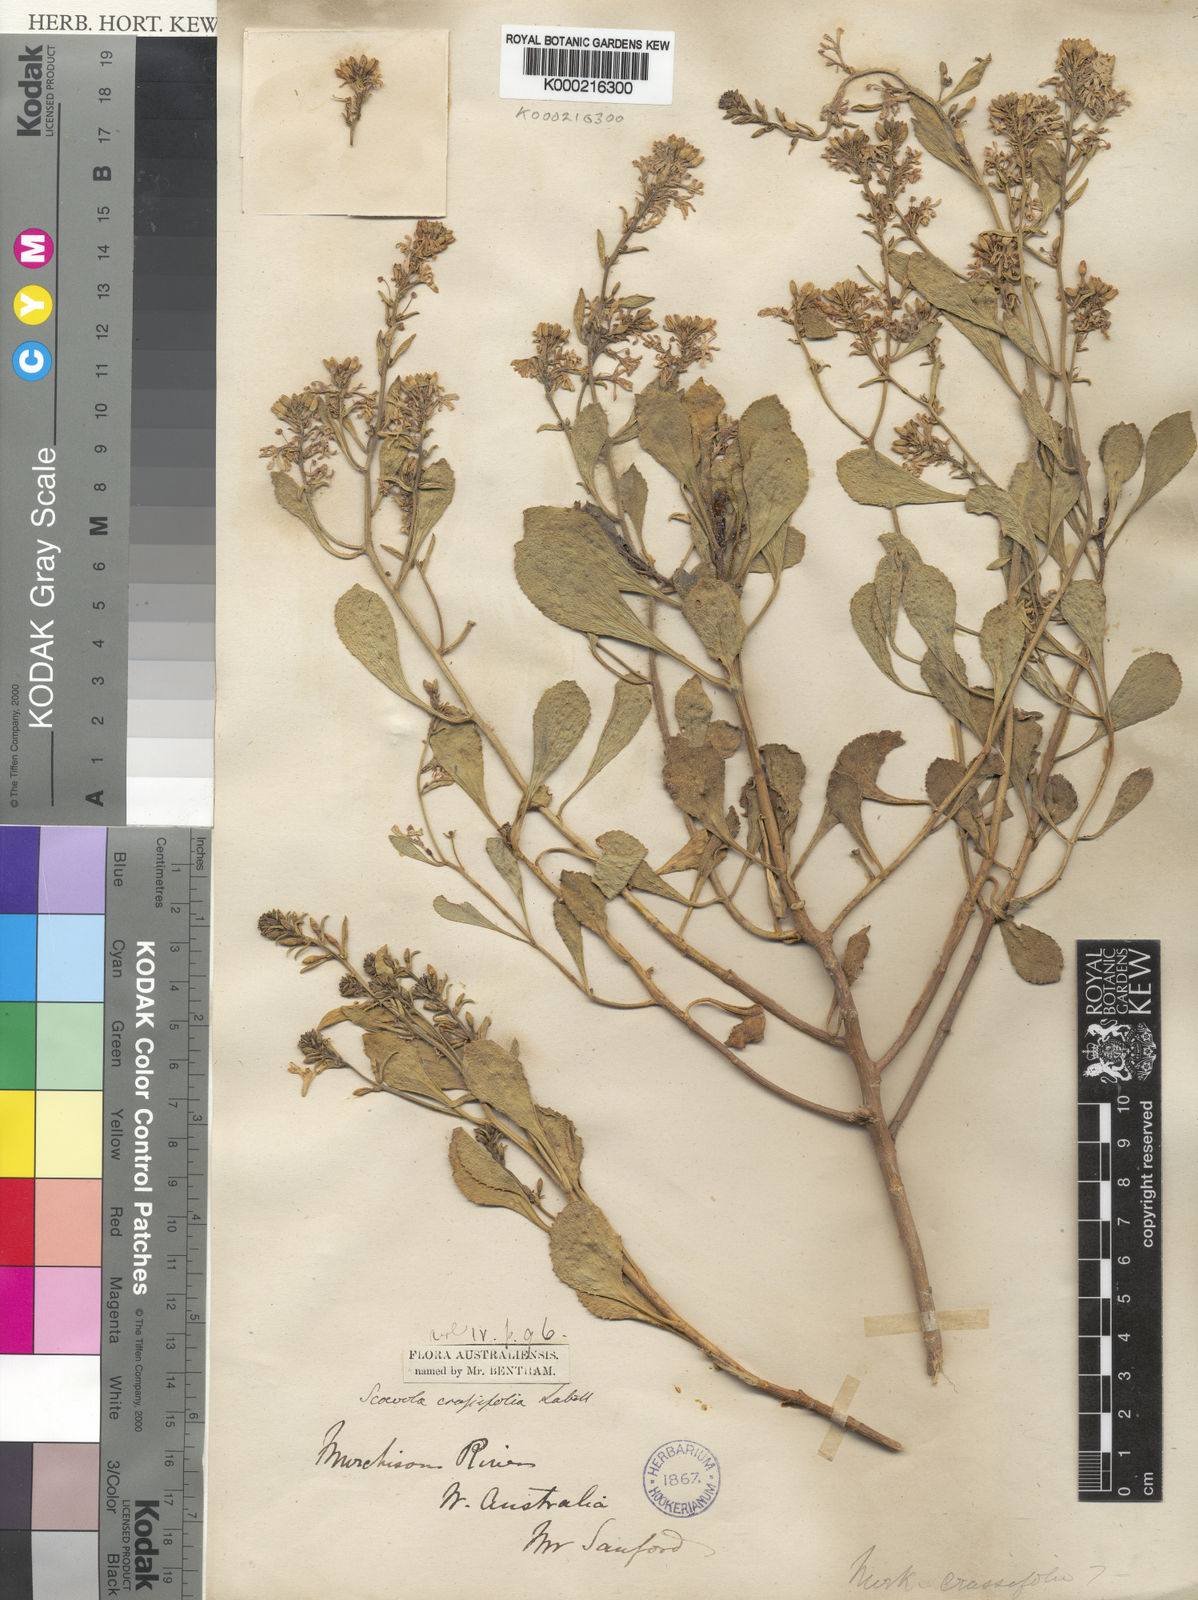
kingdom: Plantae
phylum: Tracheophyta
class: Magnoliopsida
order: Asterales
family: Goodeniaceae
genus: Scaevola
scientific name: Scaevola crassifolia
